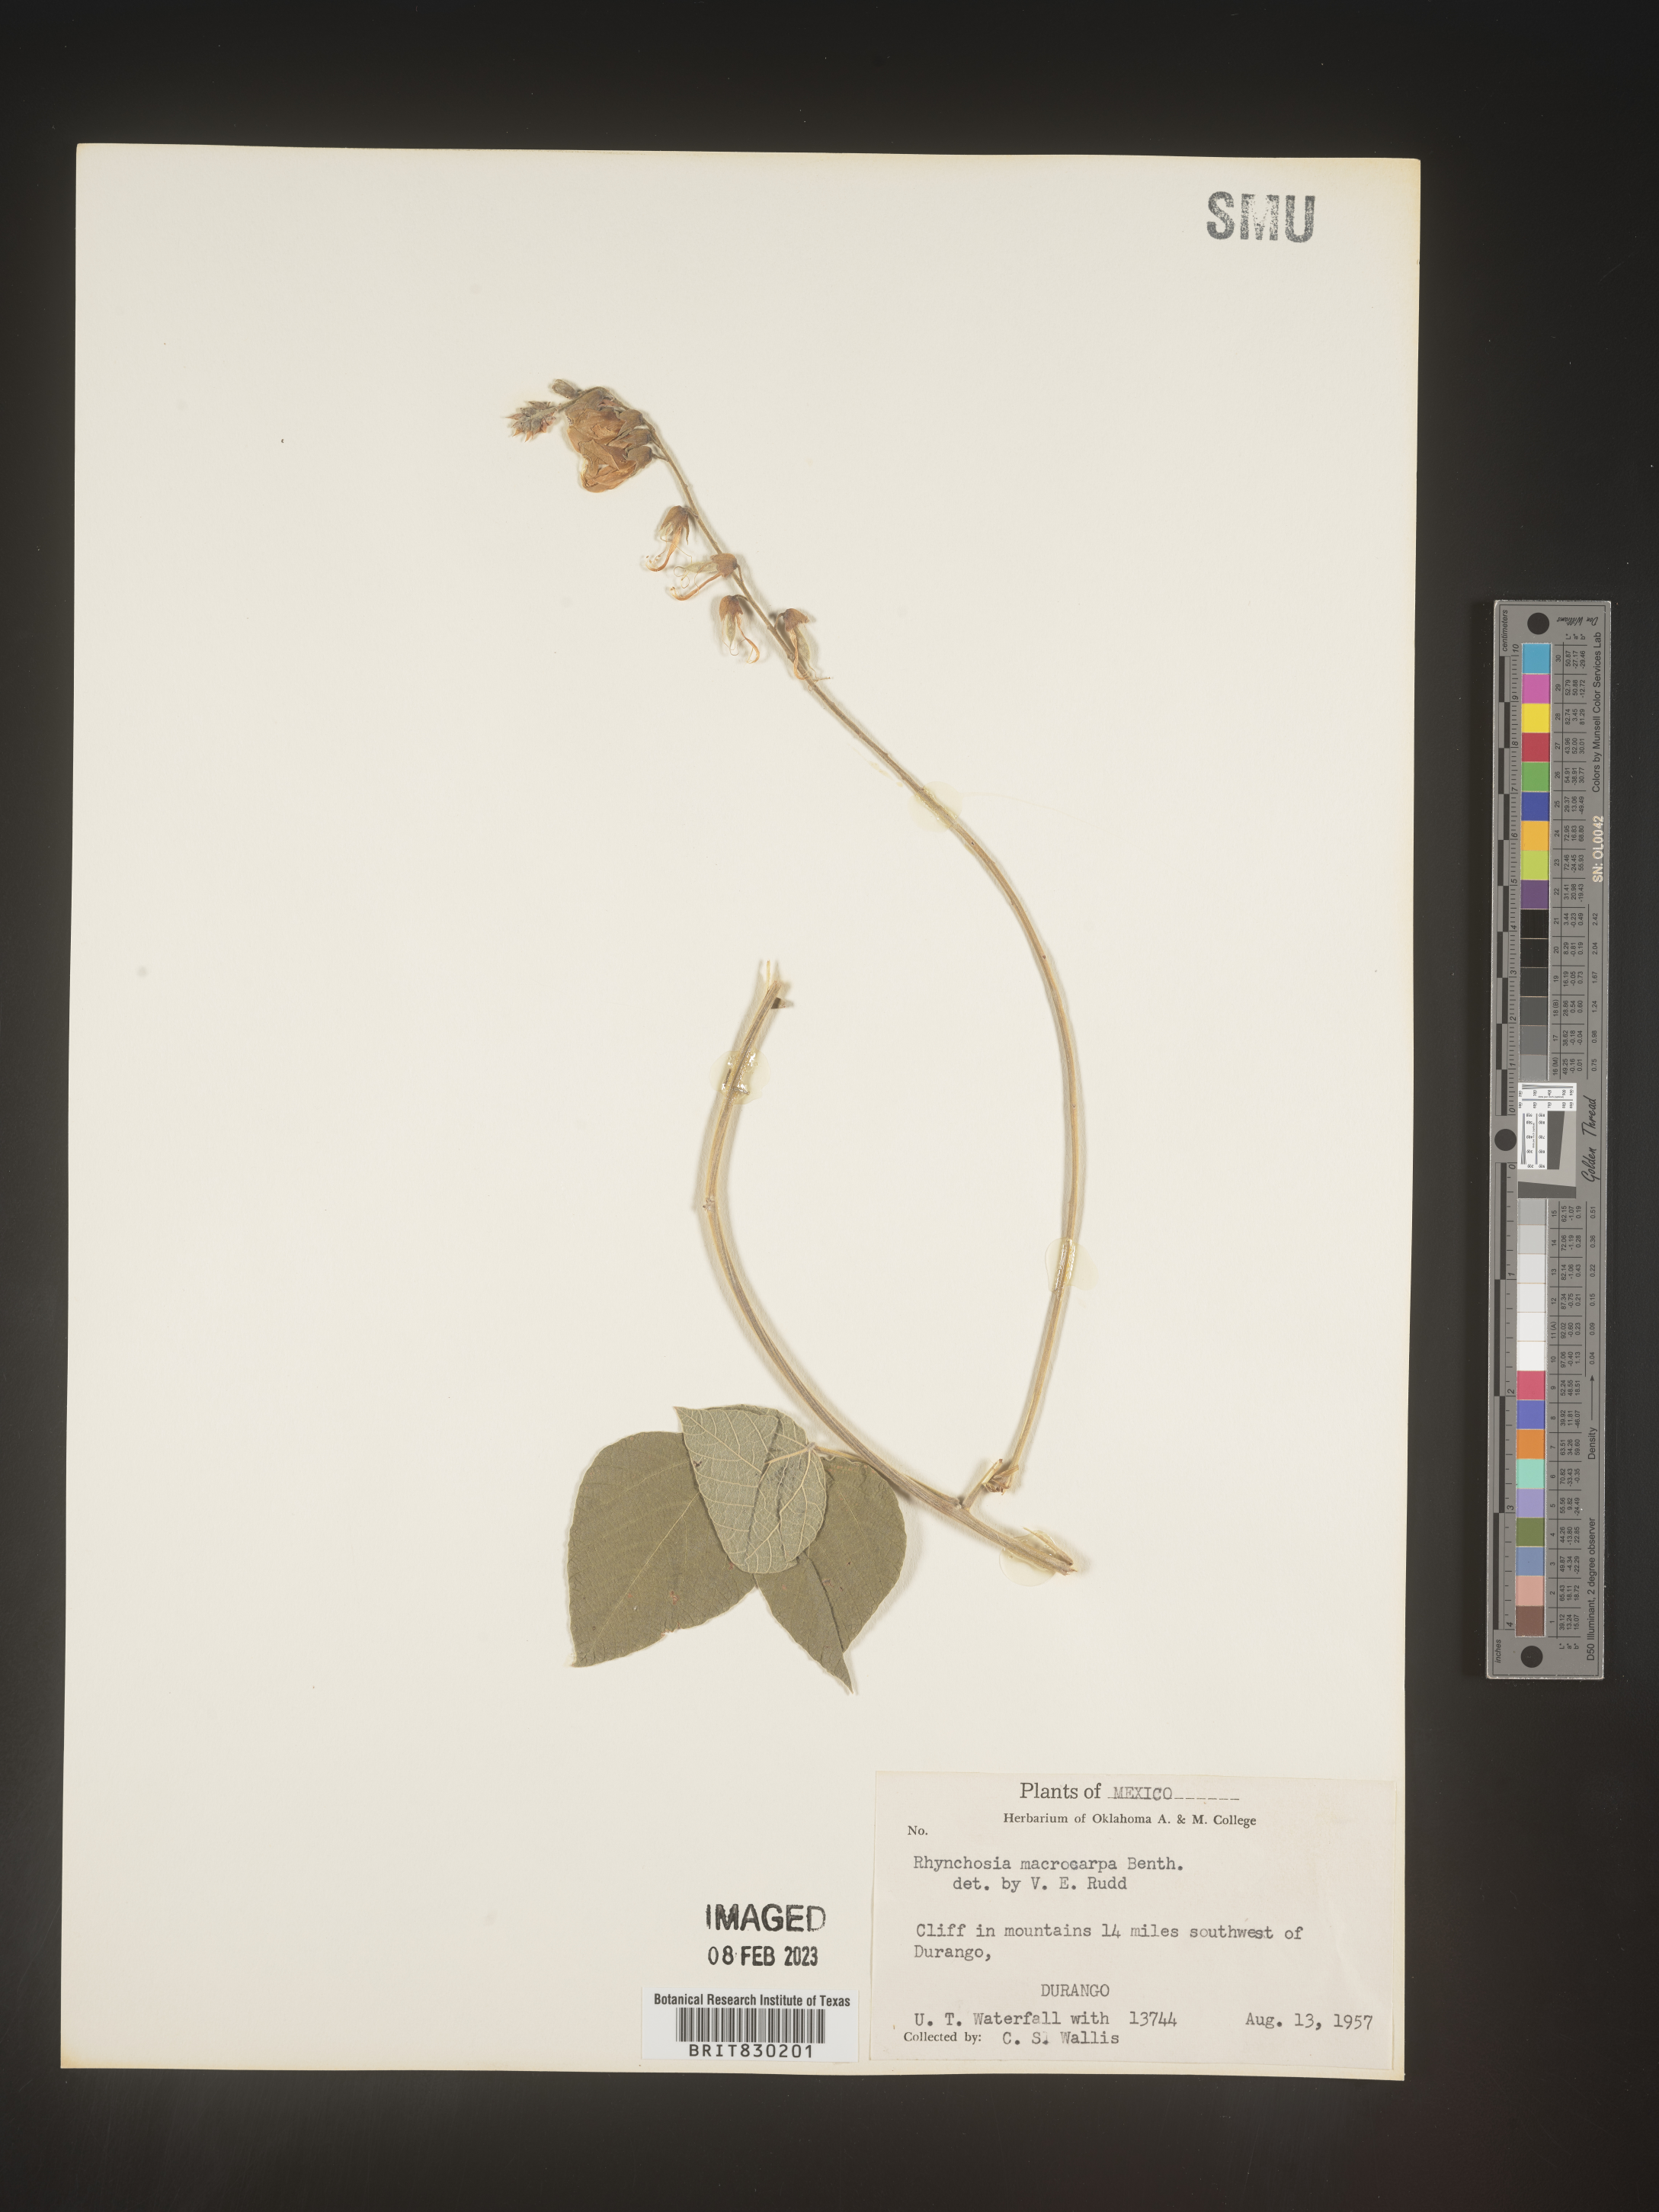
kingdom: Plantae
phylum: Tracheophyta
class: Magnoliopsida
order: Fabales
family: Fabaceae
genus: Rhynchosia
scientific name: Rhynchosia
